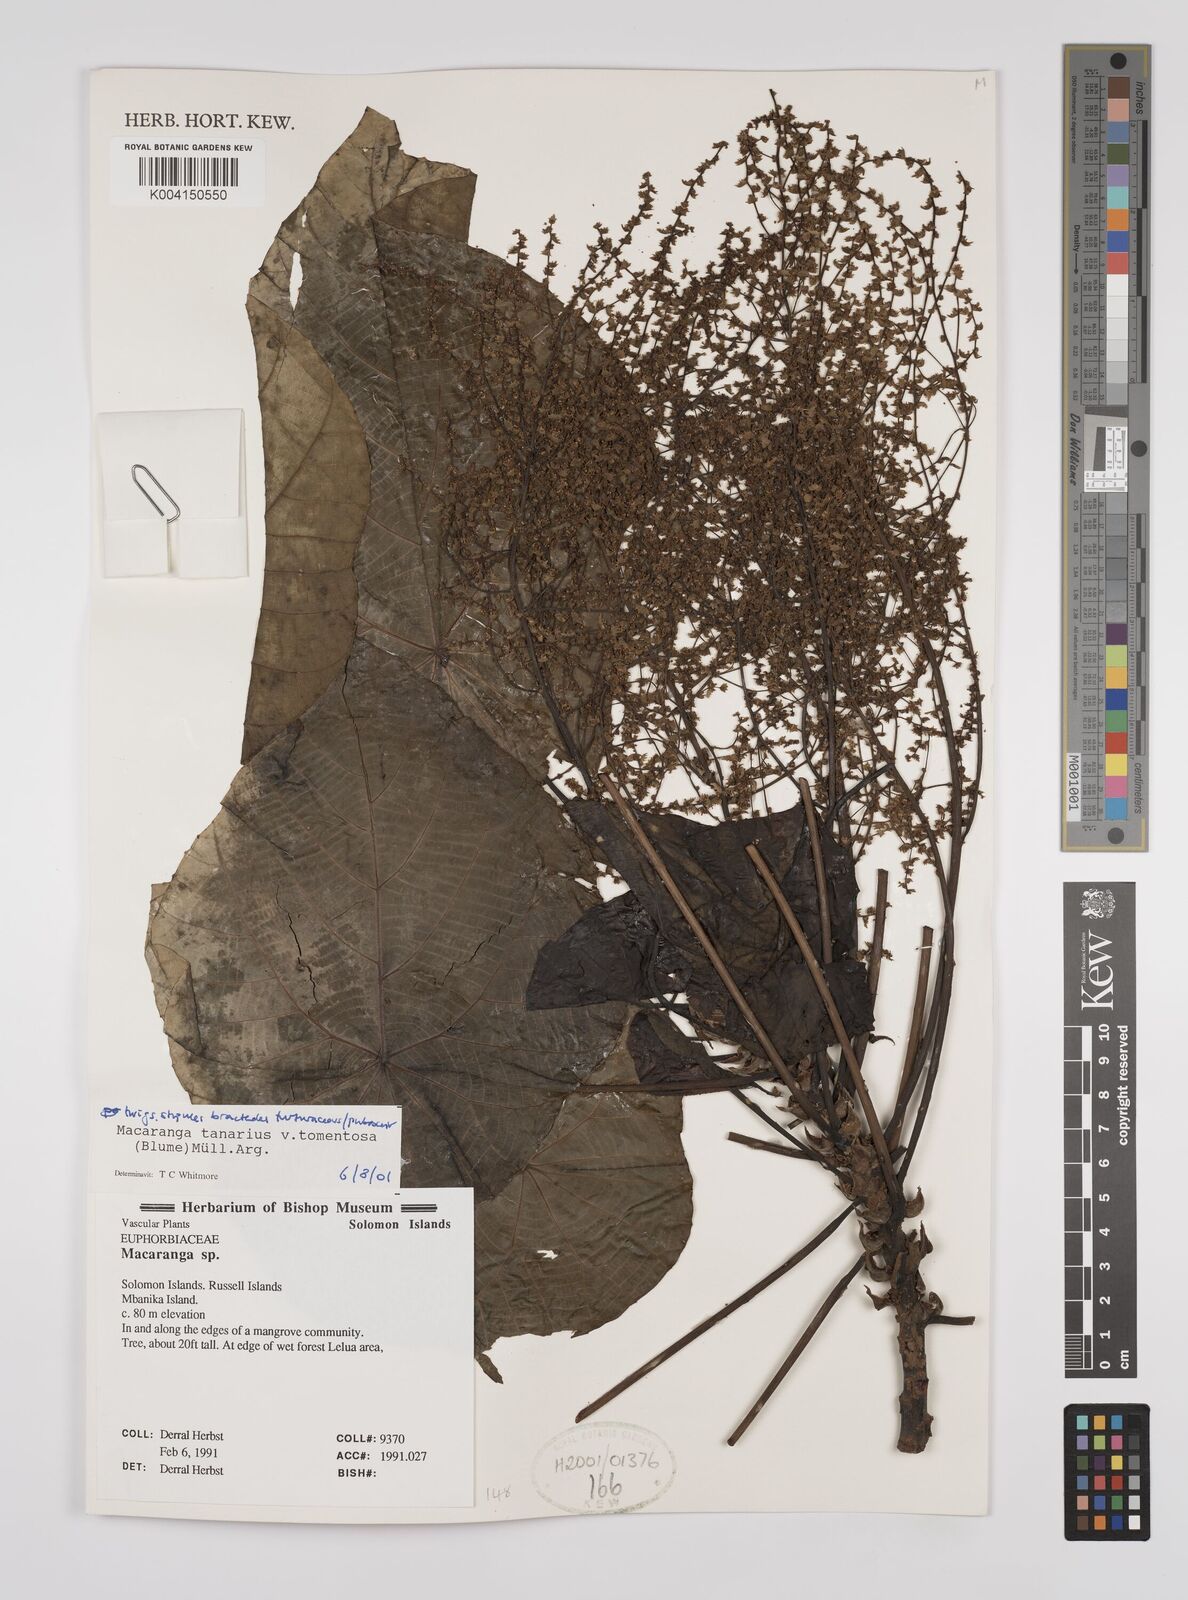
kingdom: Plantae
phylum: Tracheophyta
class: Magnoliopsida
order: Malpighiales
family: Euphorbiaceae
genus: Macaranga
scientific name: Macaranga tanarius
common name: Parasol leaf tree
